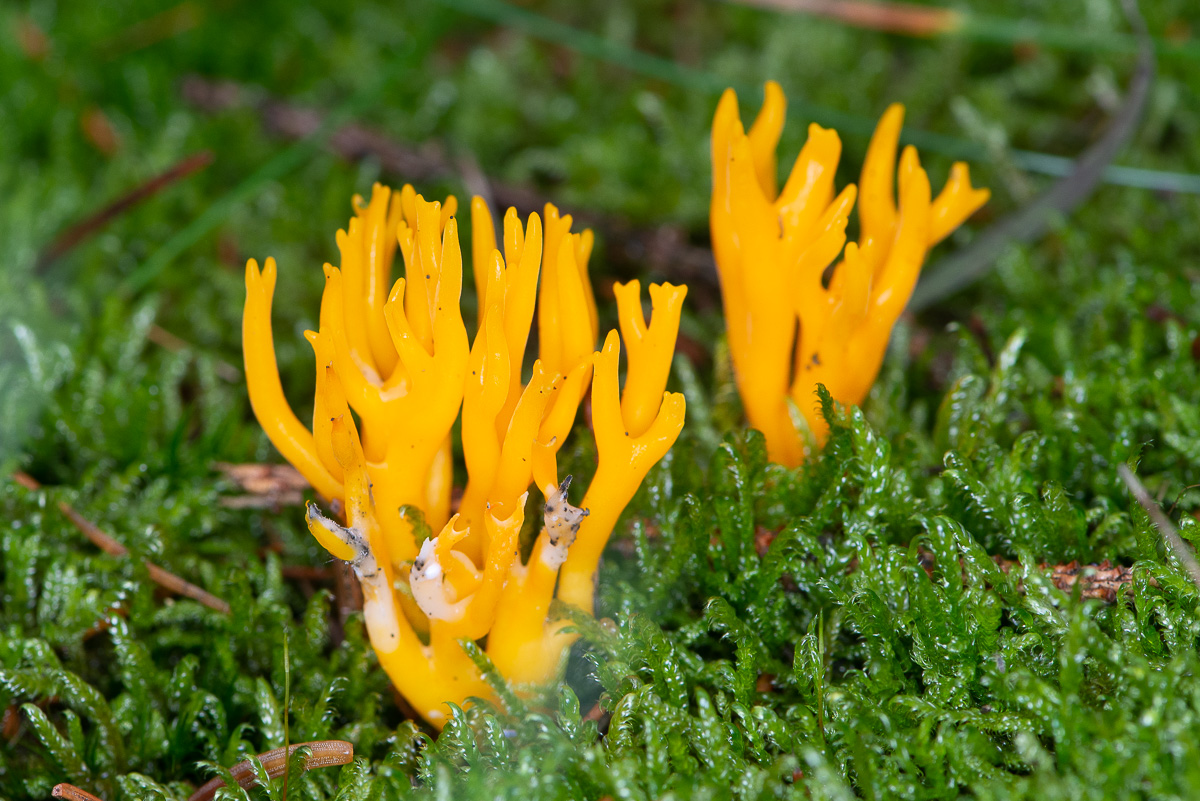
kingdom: Fungi
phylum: Basidiomycota
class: Dacrymycetes
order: Dacrymycetales
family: Dacrymycetaceae
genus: Calocera
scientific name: Calocera viscosa
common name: almindelig guldgaffel
